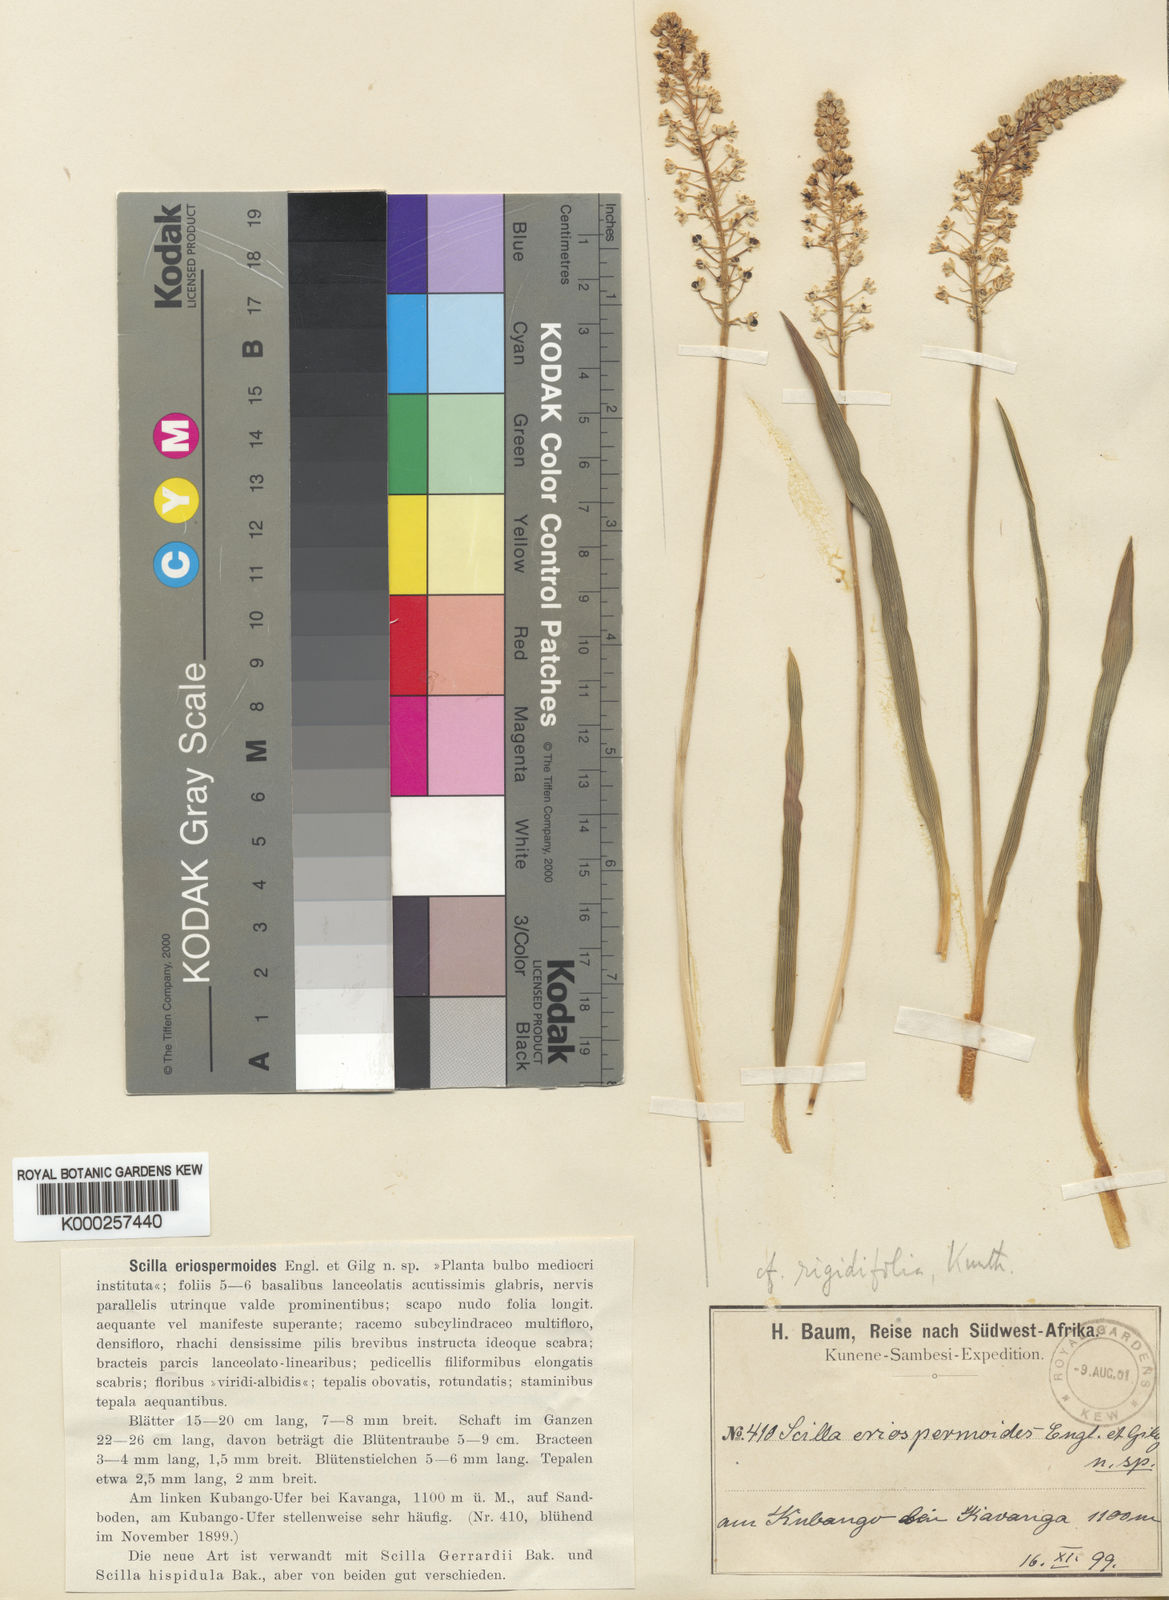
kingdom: Plantae
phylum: Tracheophyta
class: Liliopsida
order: Asparagales
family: Asparagaceae
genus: Schizocarphus
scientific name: Schizocarphus nervosus
